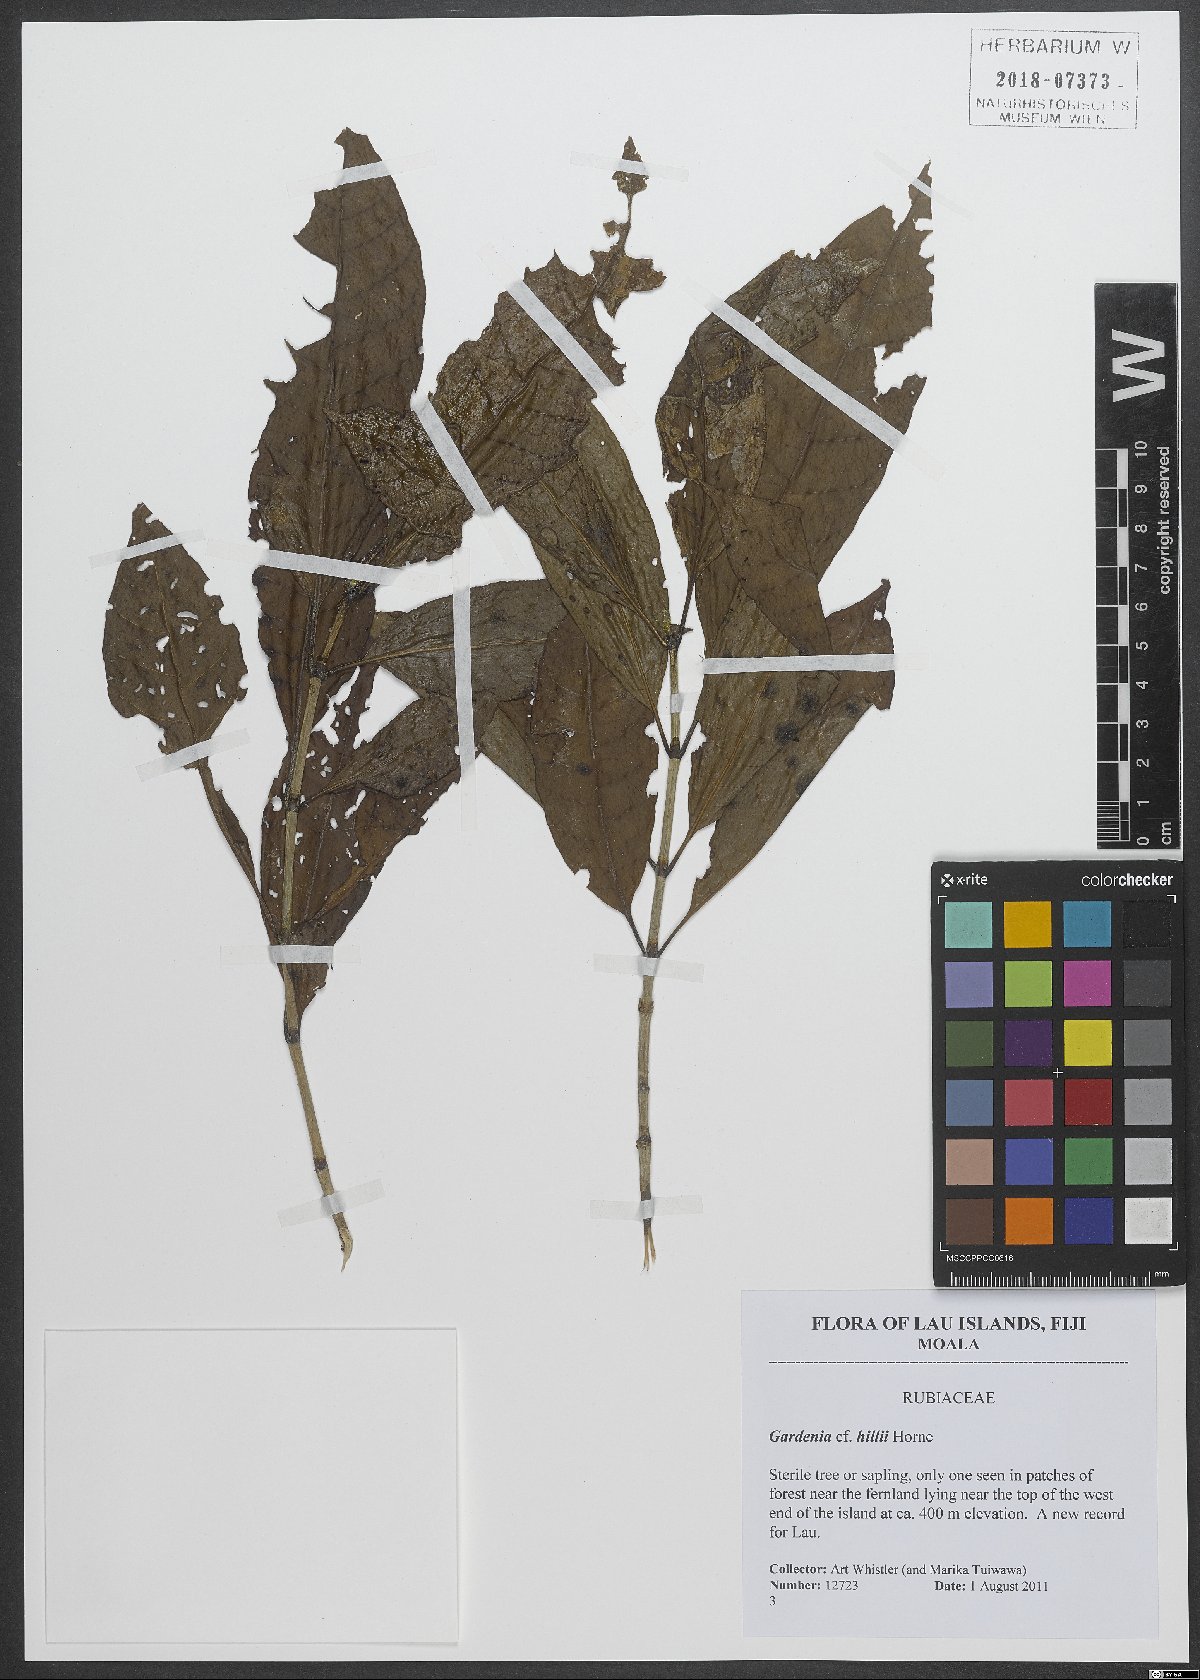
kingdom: Plantae
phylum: Tracheophyta
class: Magnoliopsida
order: Gentianales
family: Rubiaceae
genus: Gardenia
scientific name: Gardenia hillii
